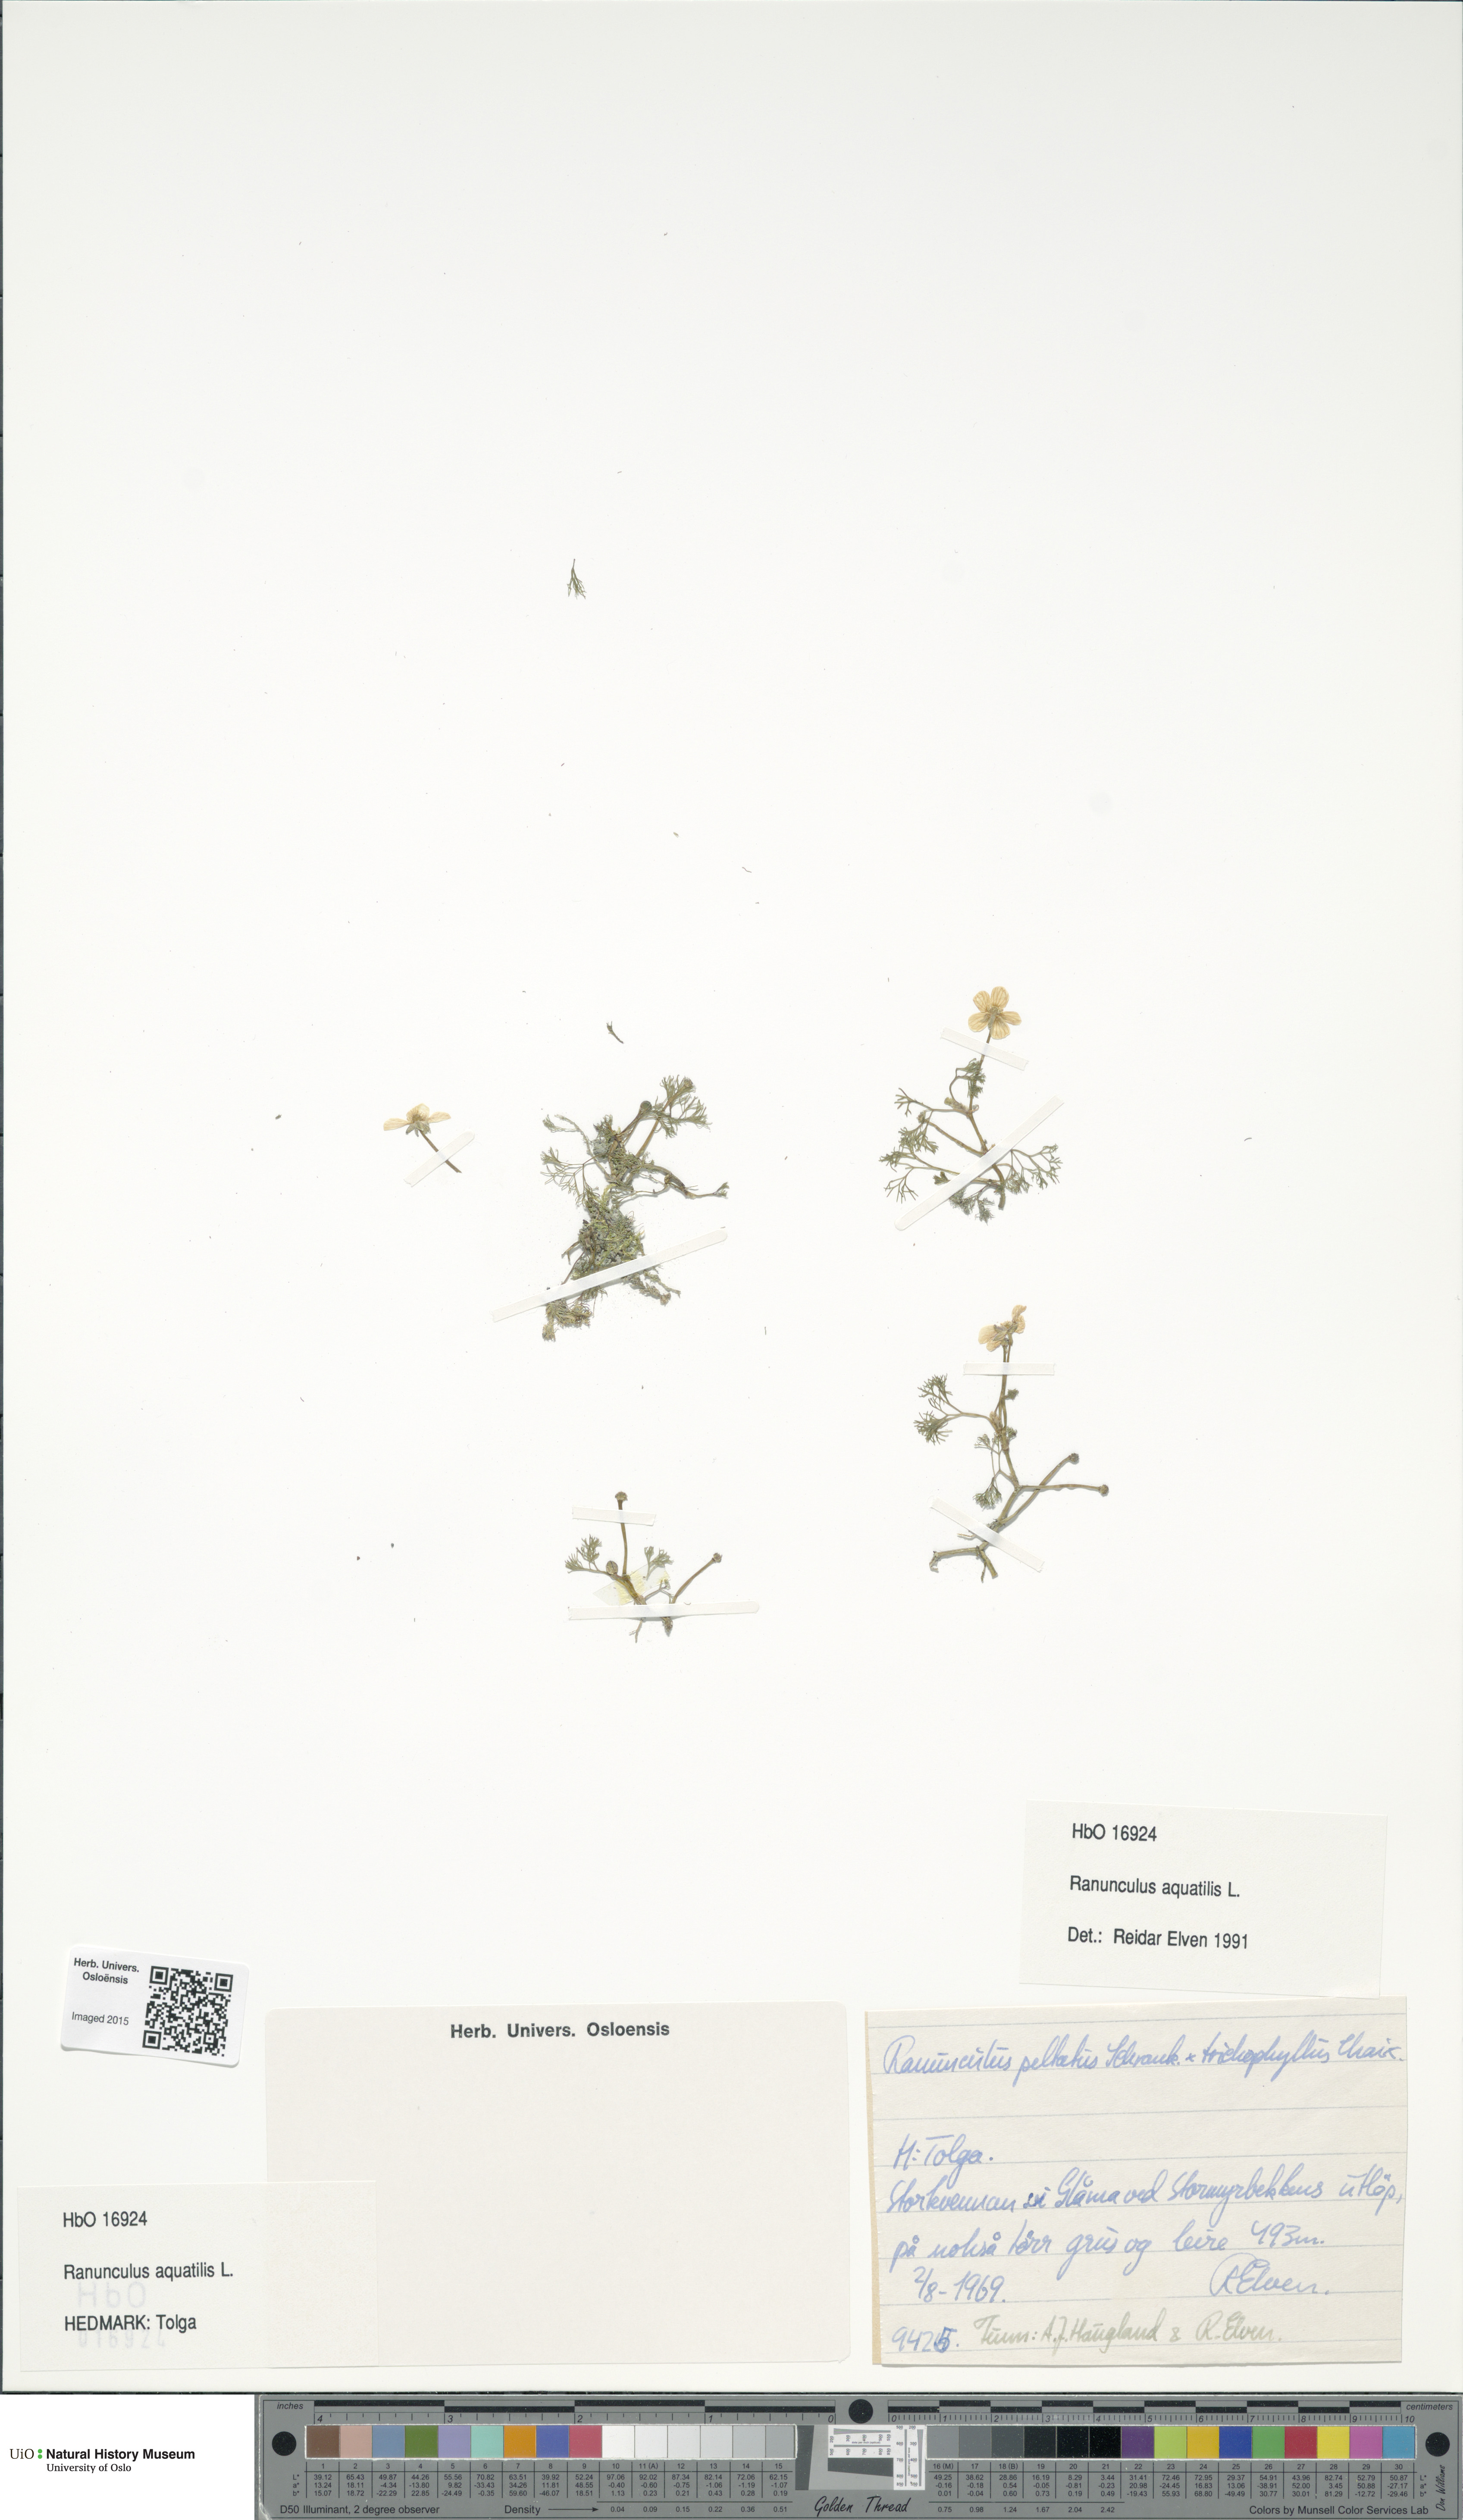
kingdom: Plantae
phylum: Tracheophyta
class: Magnoliopsida
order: Ranunculales
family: Ranunculaceae
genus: Ranunculus
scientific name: Ranunculus aquatilis
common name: Common water-crowfoot
